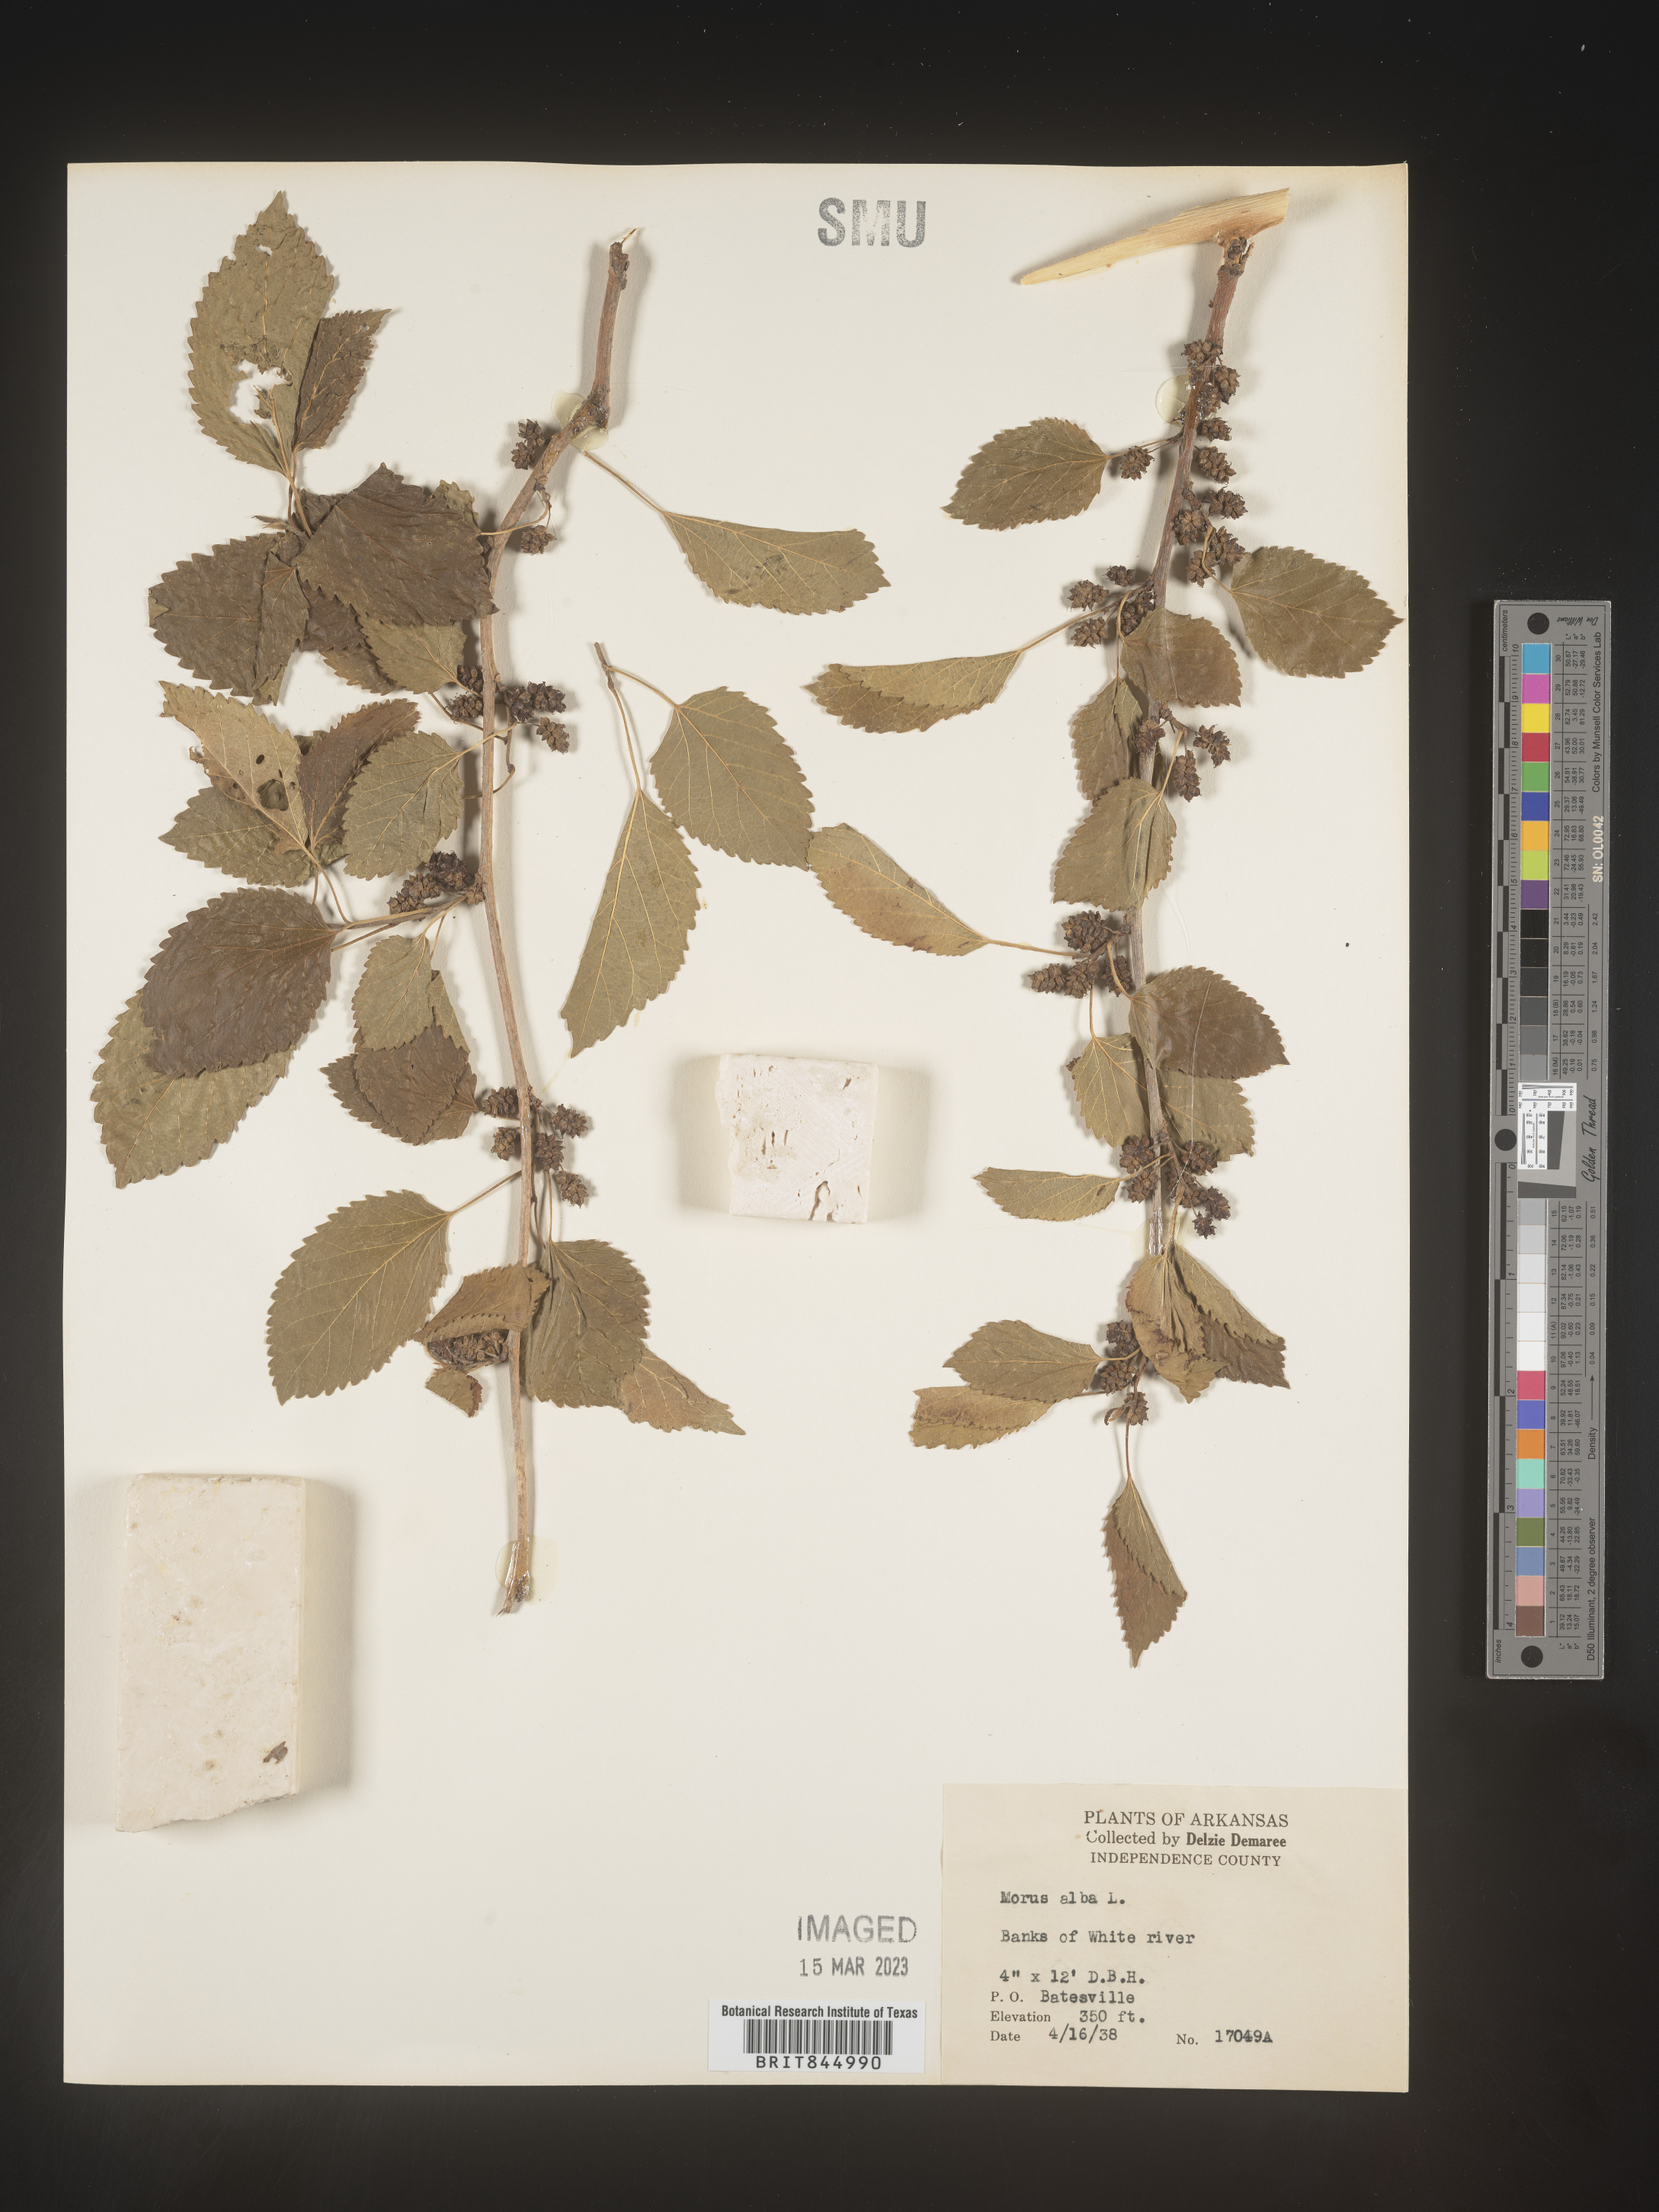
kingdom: Plantae
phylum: Tracheophyta
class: Magnoliopsida
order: Rosales
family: Moraceae
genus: Morus
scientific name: Morus alba
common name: White mulberry
